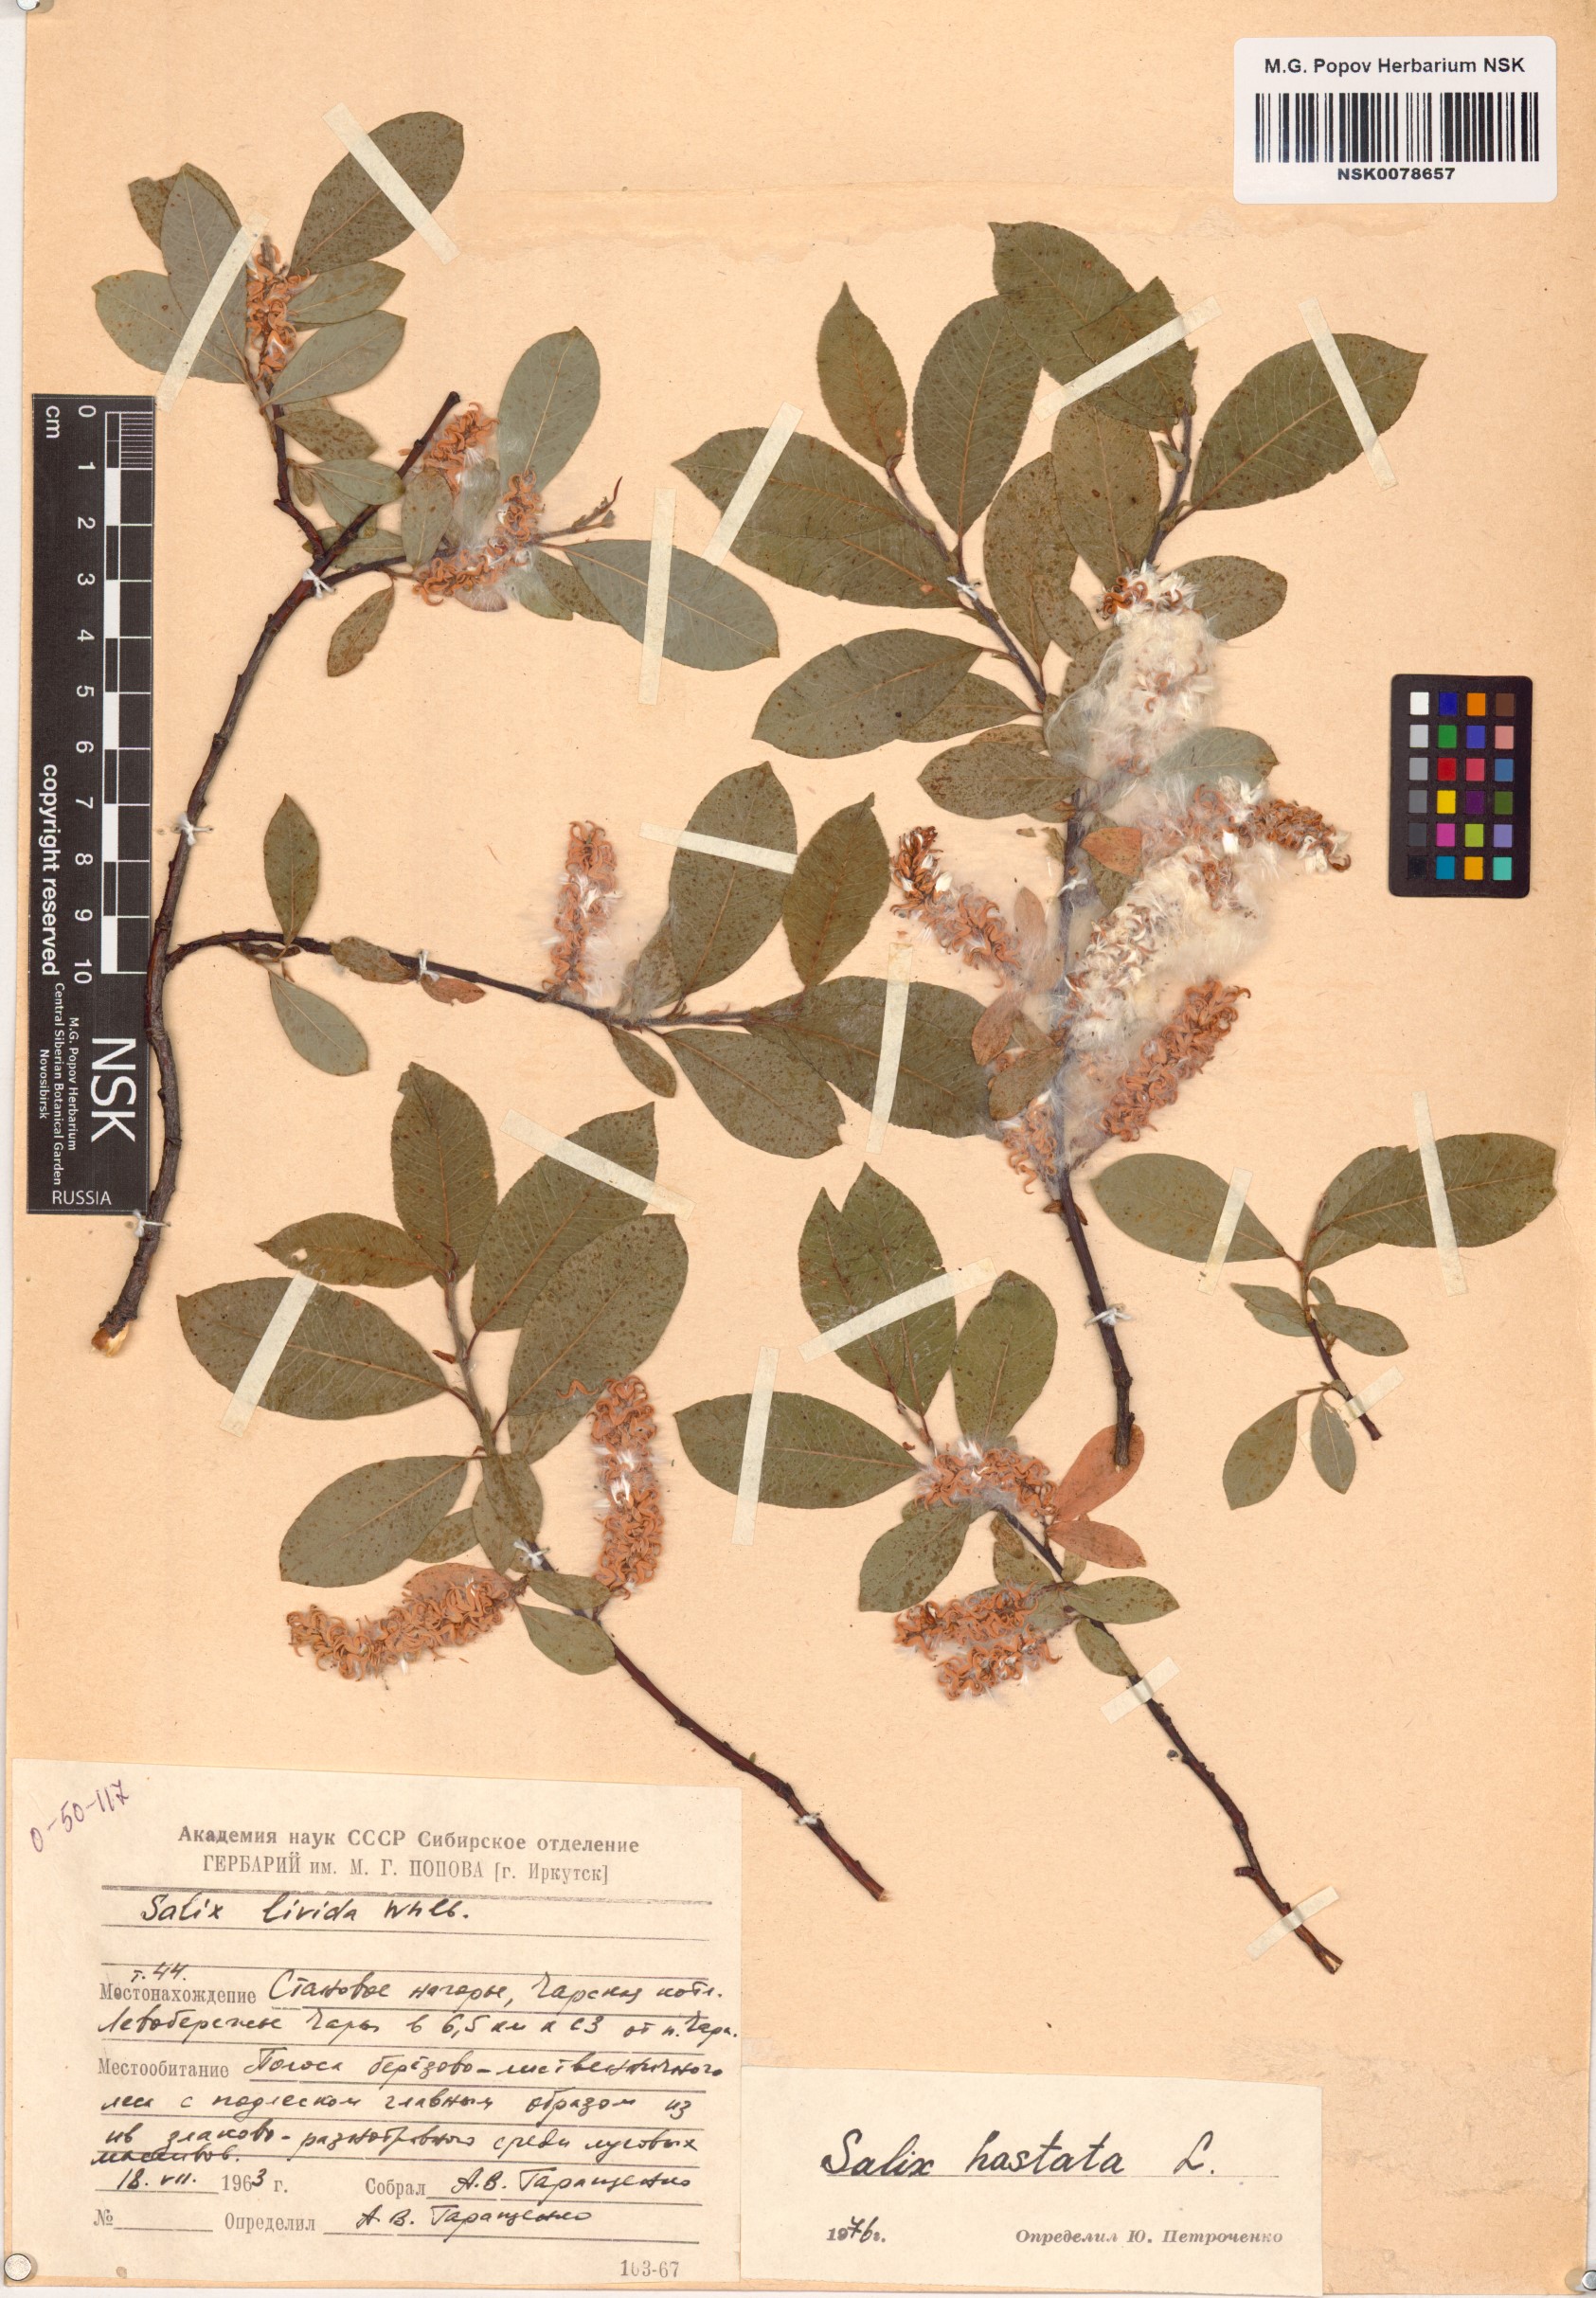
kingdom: Plantae
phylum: Tracheophyta
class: Magnoliopsida
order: Malpighiales
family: Salicaceae
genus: Salix
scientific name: Salix hastata
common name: Halberd willow
